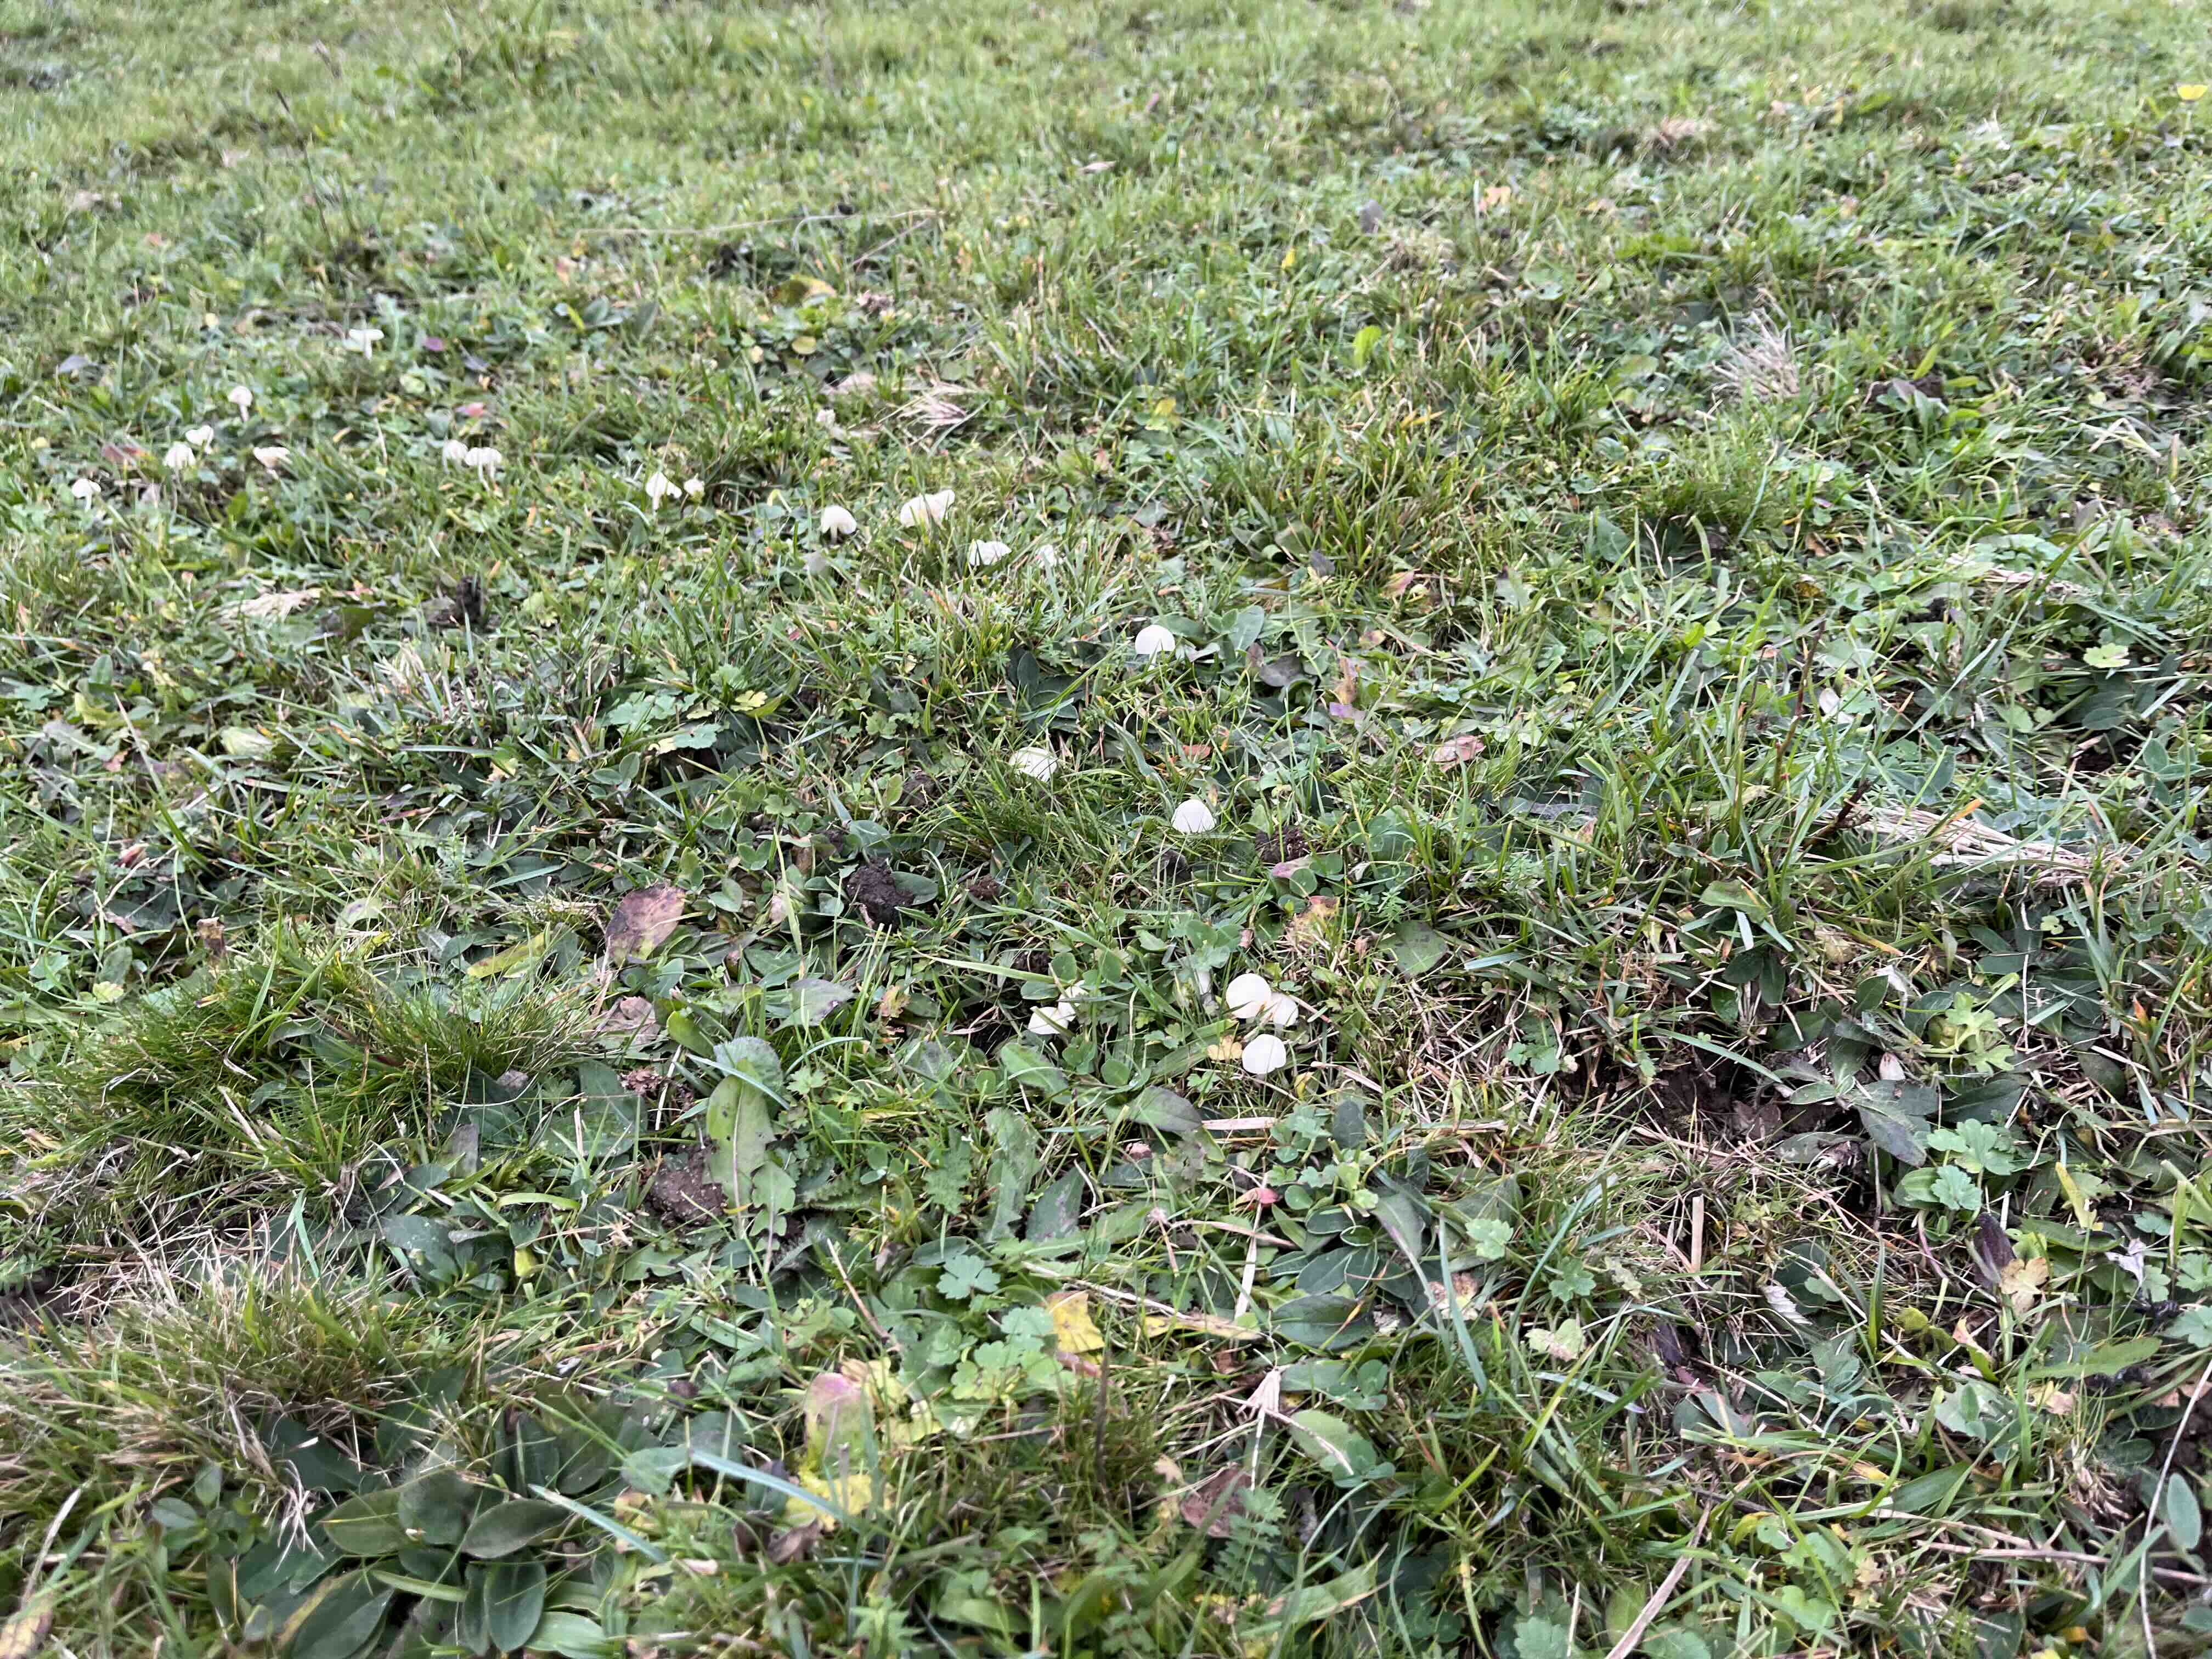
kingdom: Fungi
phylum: Basidiomycota
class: Agaricomycetes
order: Agaricales
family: Hygrophoraceae
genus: Cuphophyllus
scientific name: Cuphophyllus virgineus
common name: snehvid vokshat
